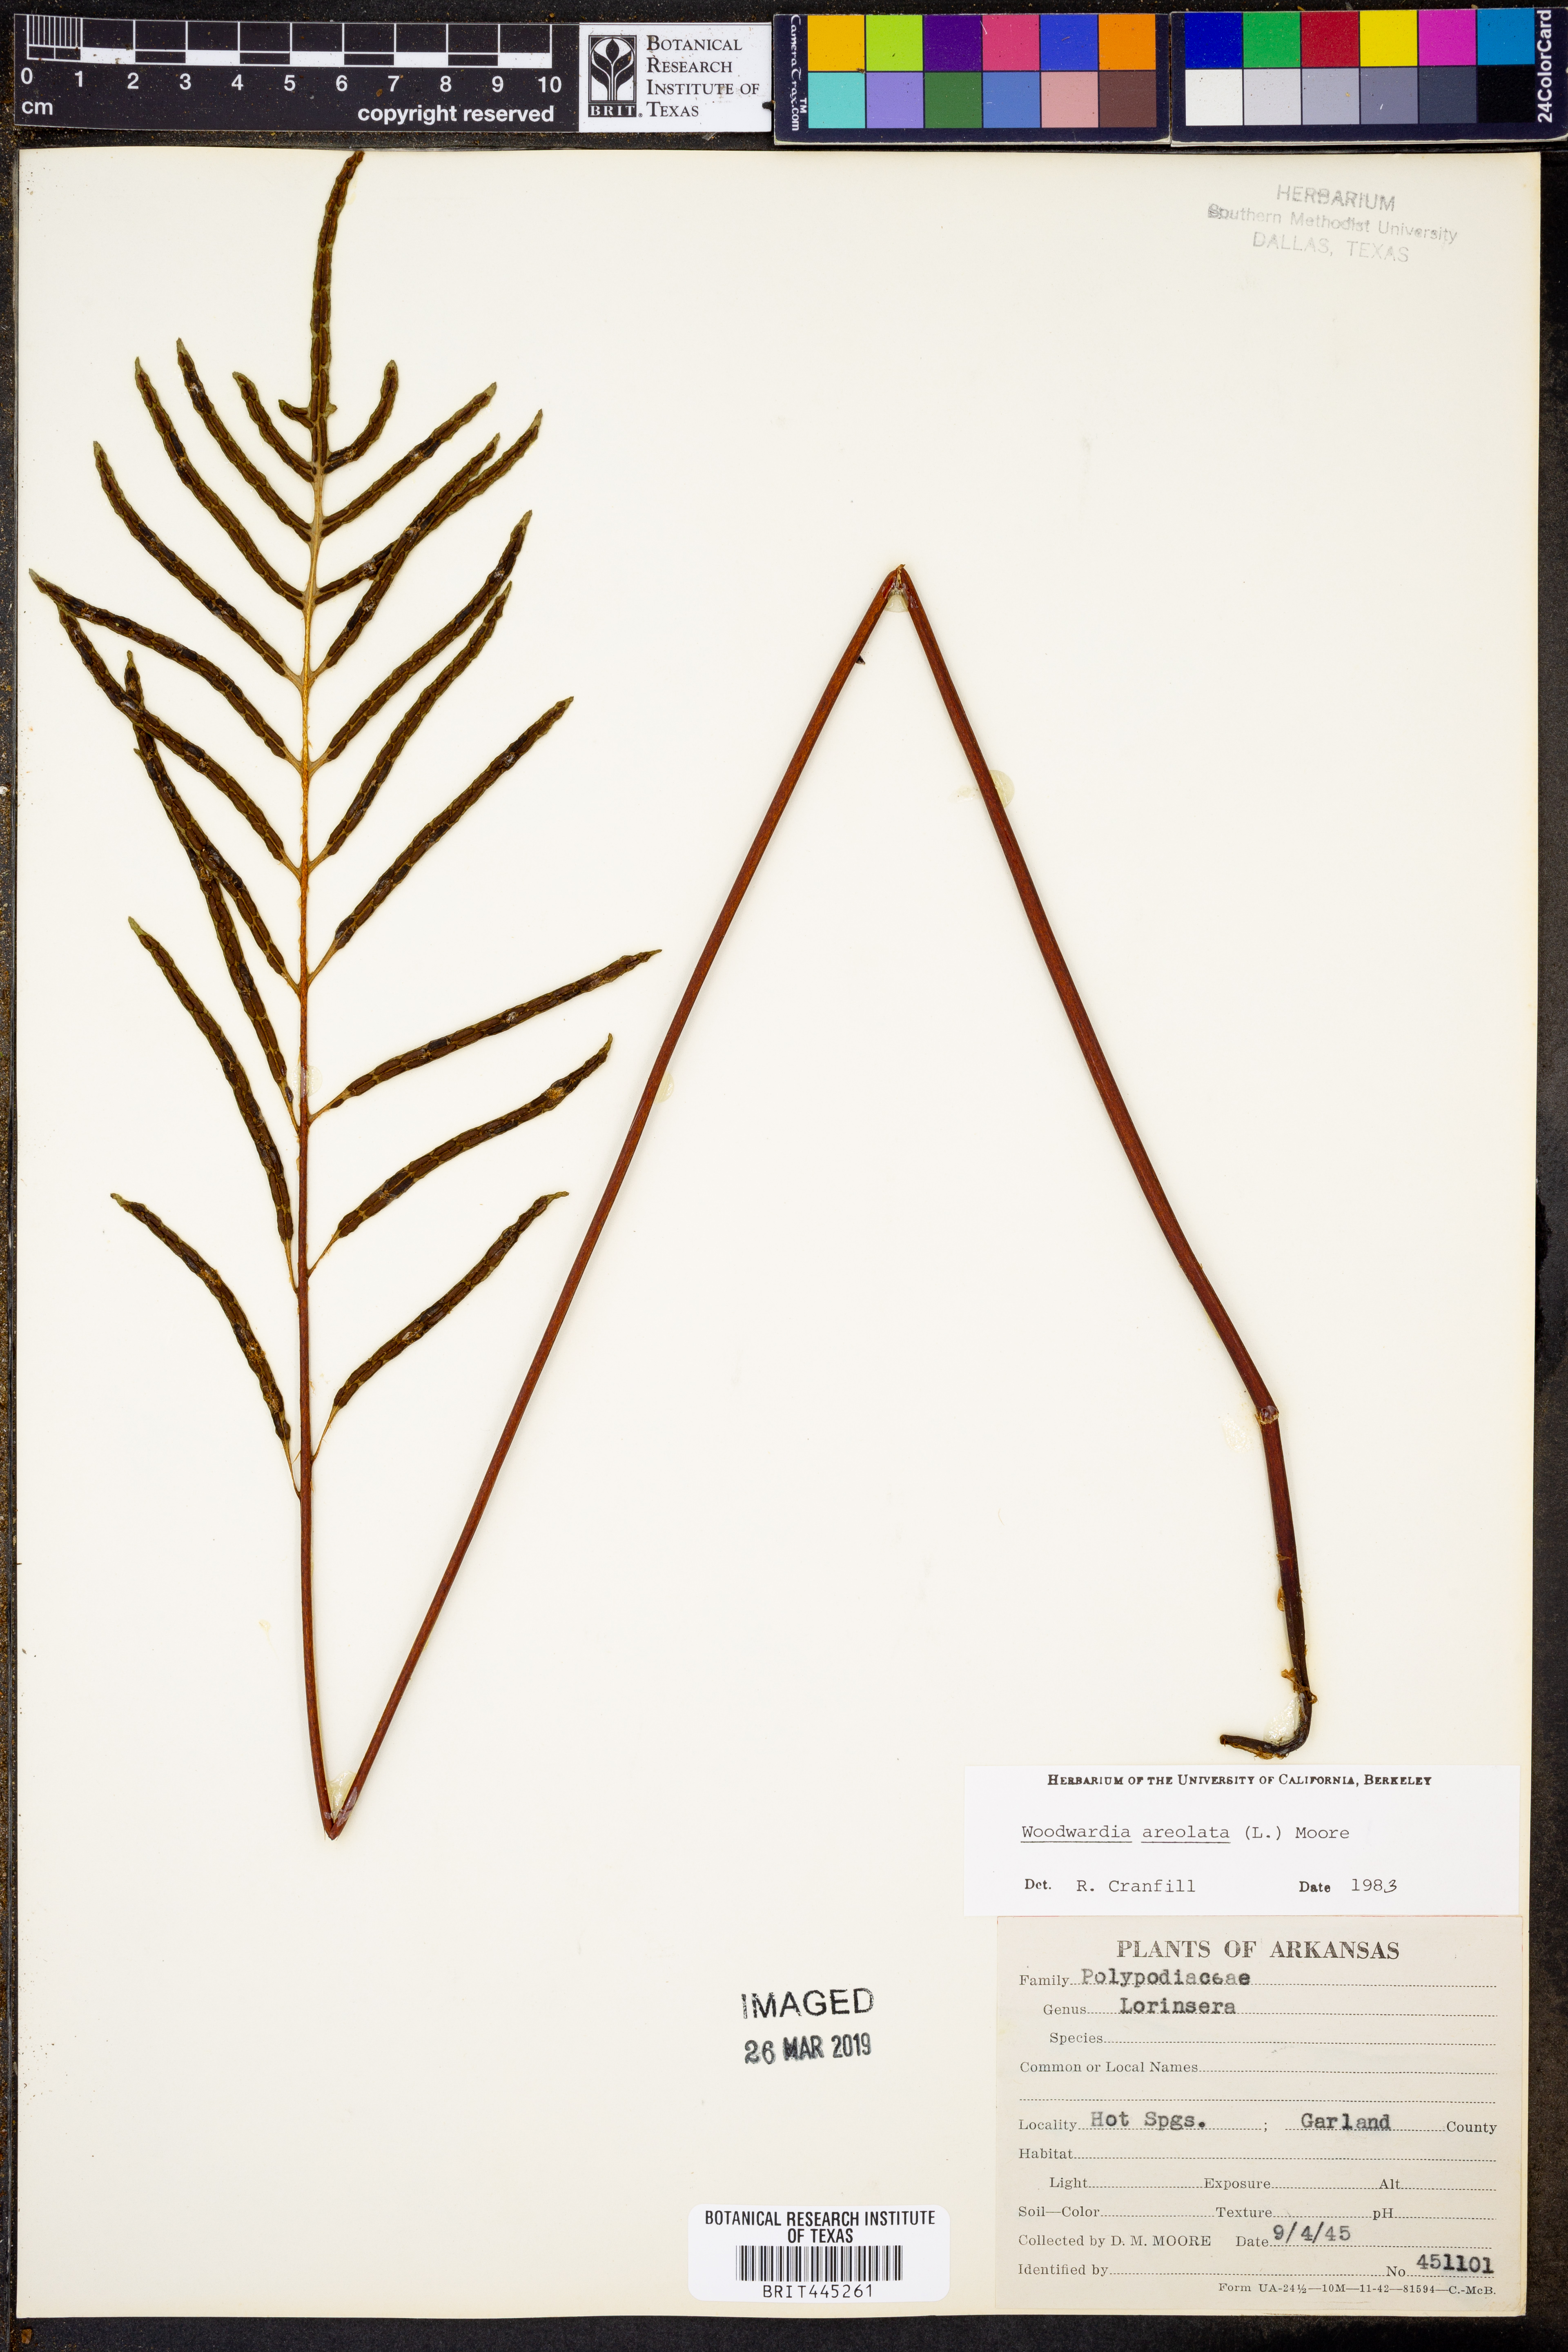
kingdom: Plantae
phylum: Tracheophyta
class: Polypodiopsida
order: Polypodiales
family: Blechnaceae
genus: Lorinseria
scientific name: Lorinseria areolata
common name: Dwarf chain fern
